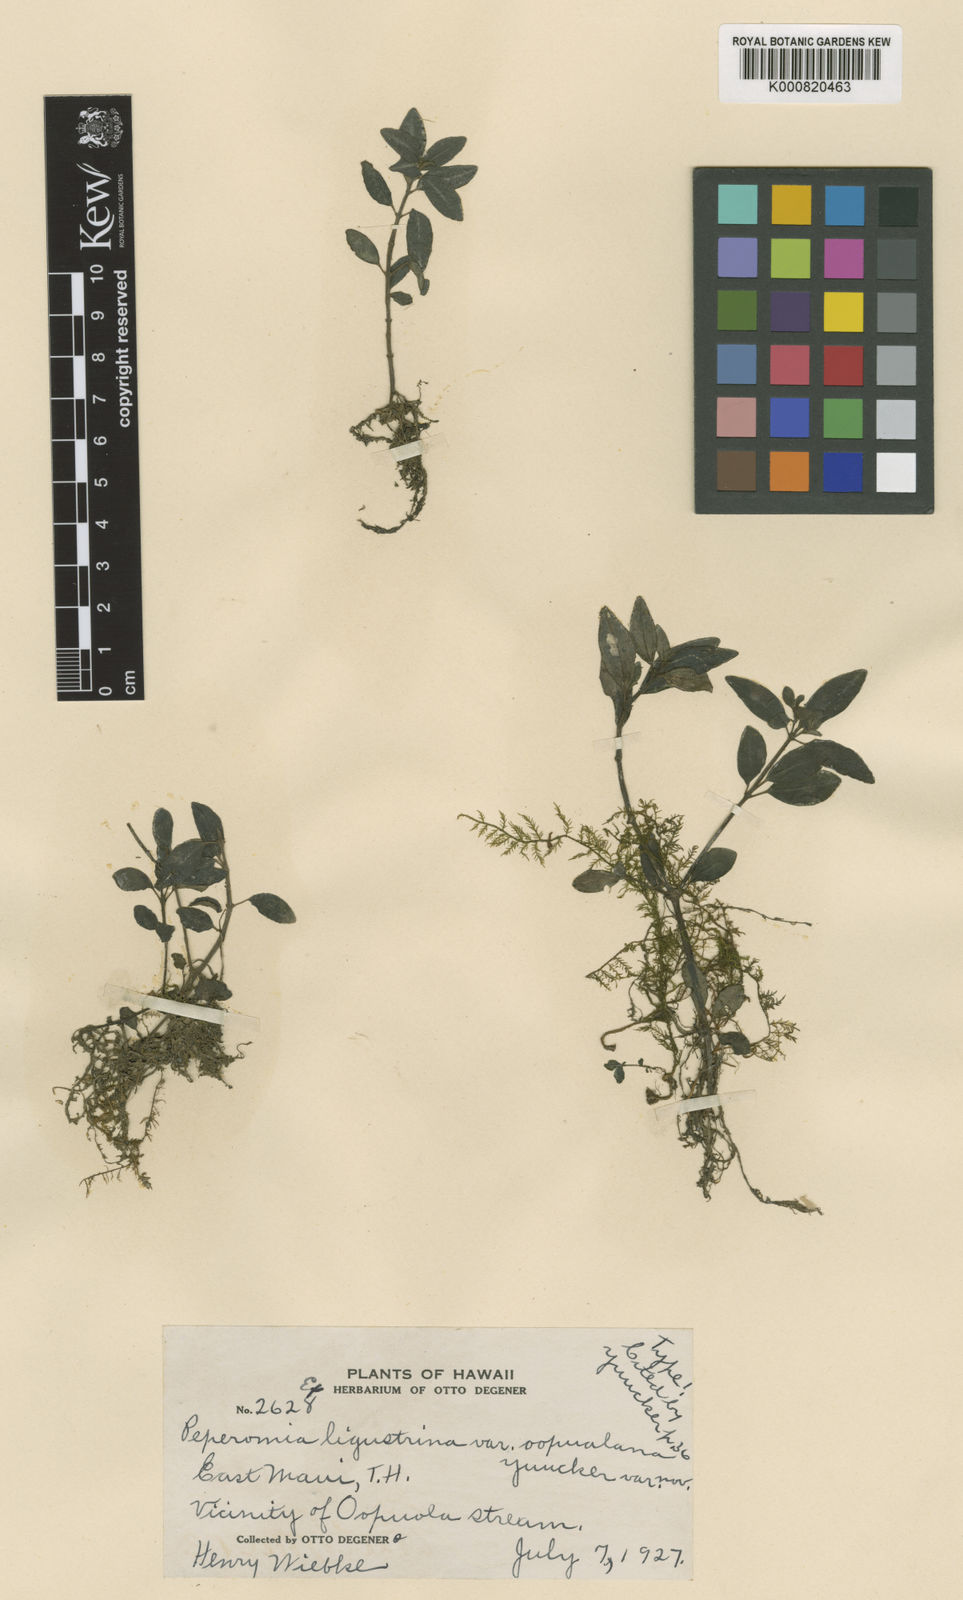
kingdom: Plantae
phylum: Tracheophyta
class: Magnoliopsida
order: Piperales
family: Piperaceae
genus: Peperomia
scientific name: Peperomia ligustrina
